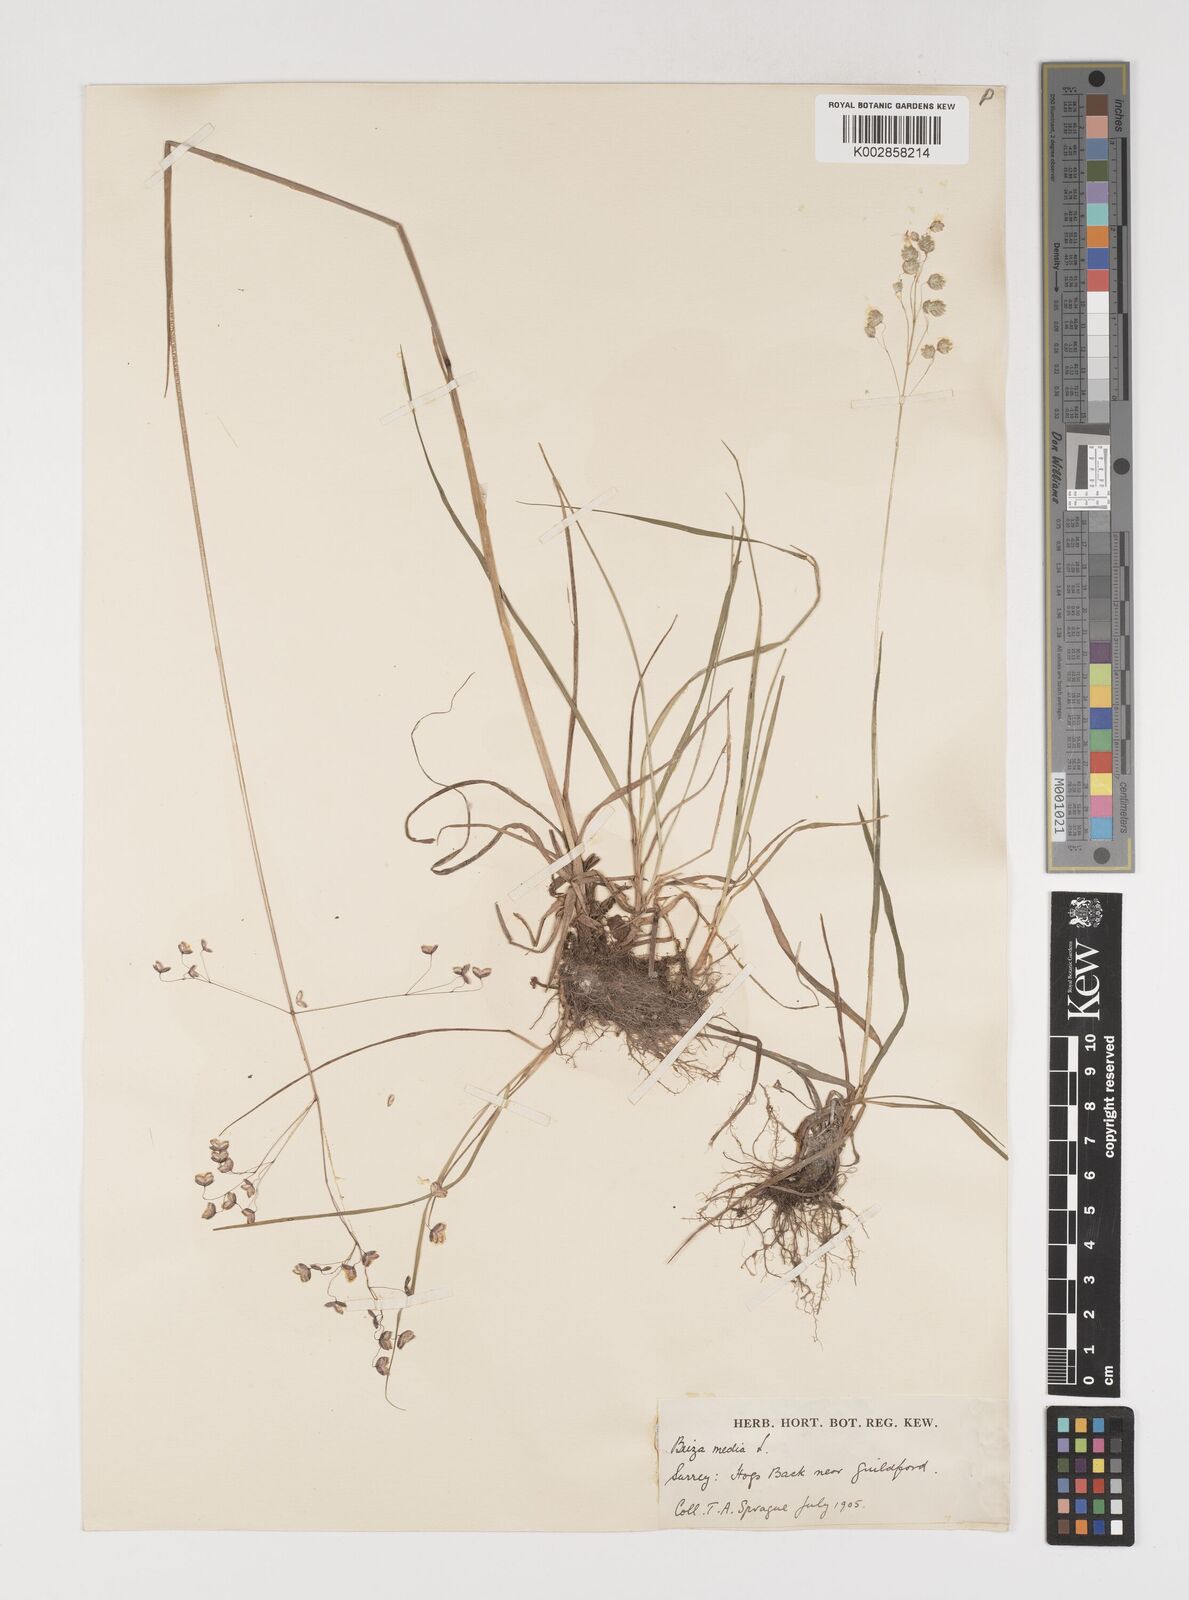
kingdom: Plantae
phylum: Tracheophyta
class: Liliopsida
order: Poales
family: Poaceae
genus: Briza
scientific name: Briza media
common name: Quaking grass
